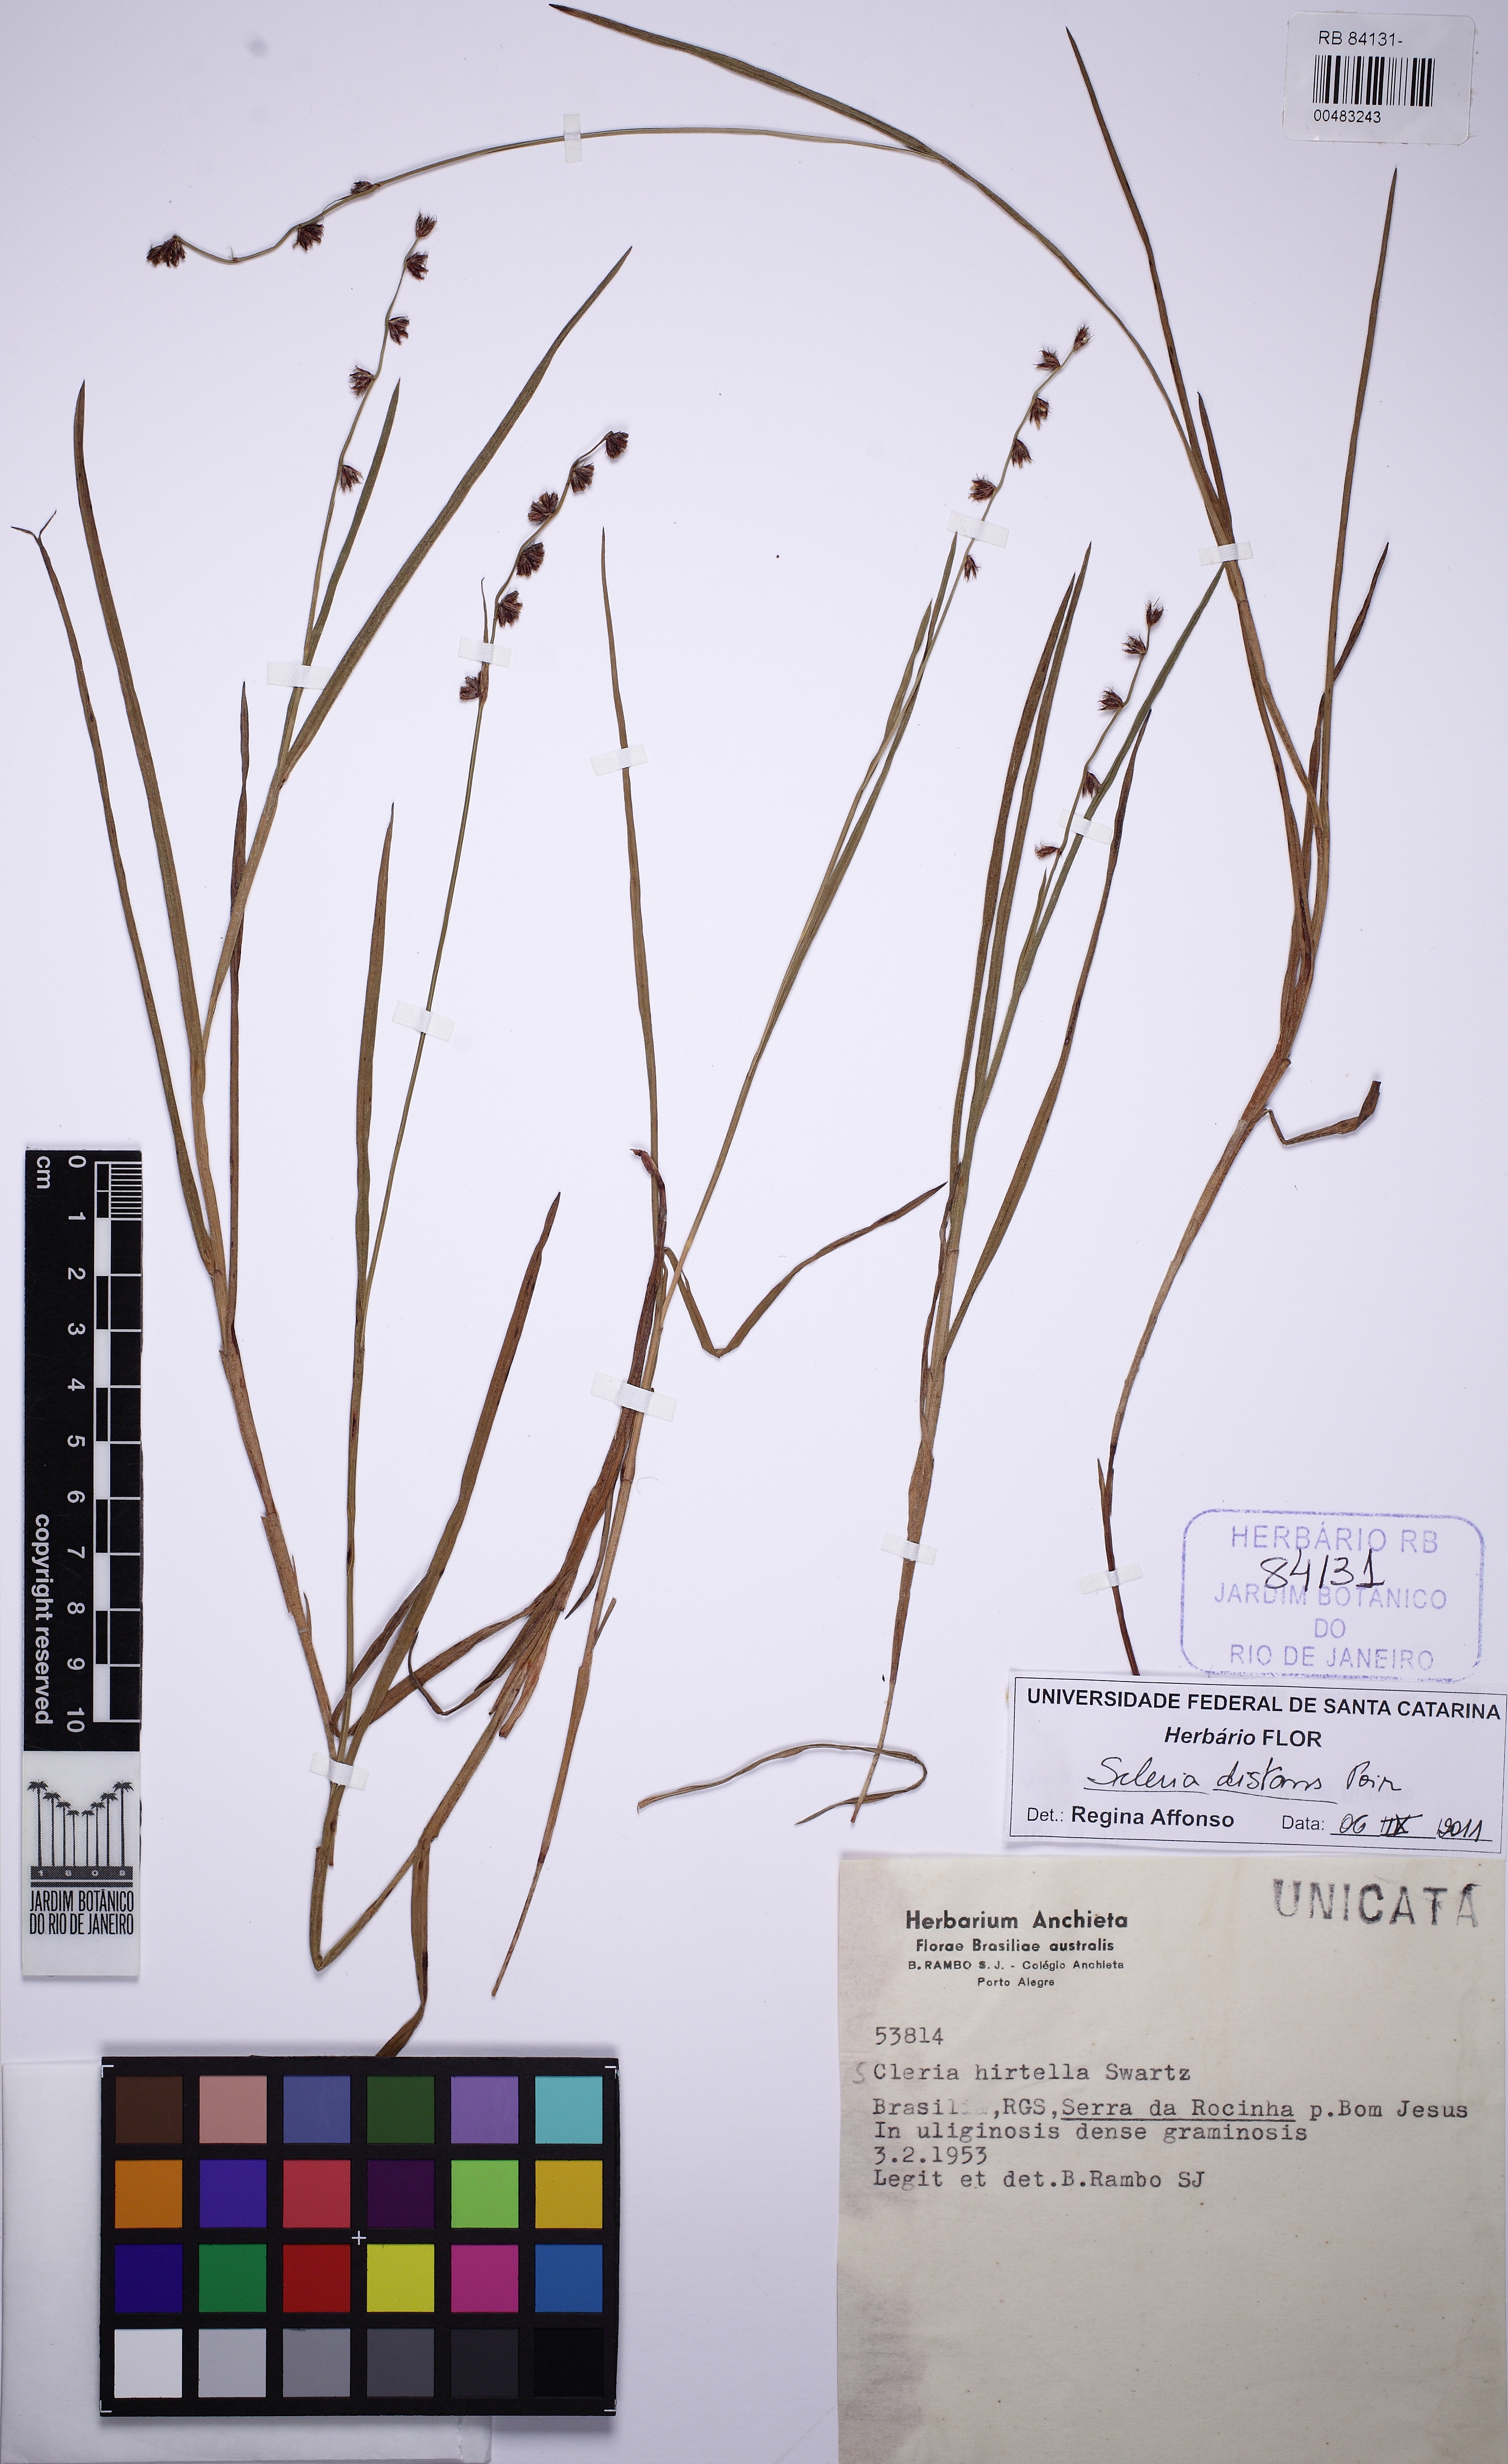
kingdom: Plantae
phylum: Tracheophyta
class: Liliopsida
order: Poales
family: Cyperaceae
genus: Scleria
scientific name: Scleria distans
